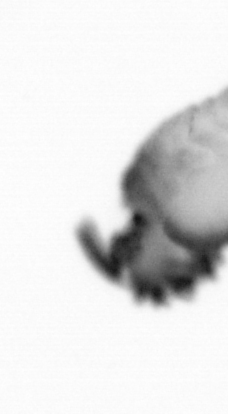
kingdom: Animalia
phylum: Annelida
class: Polychaeta
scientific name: Polychaeta
